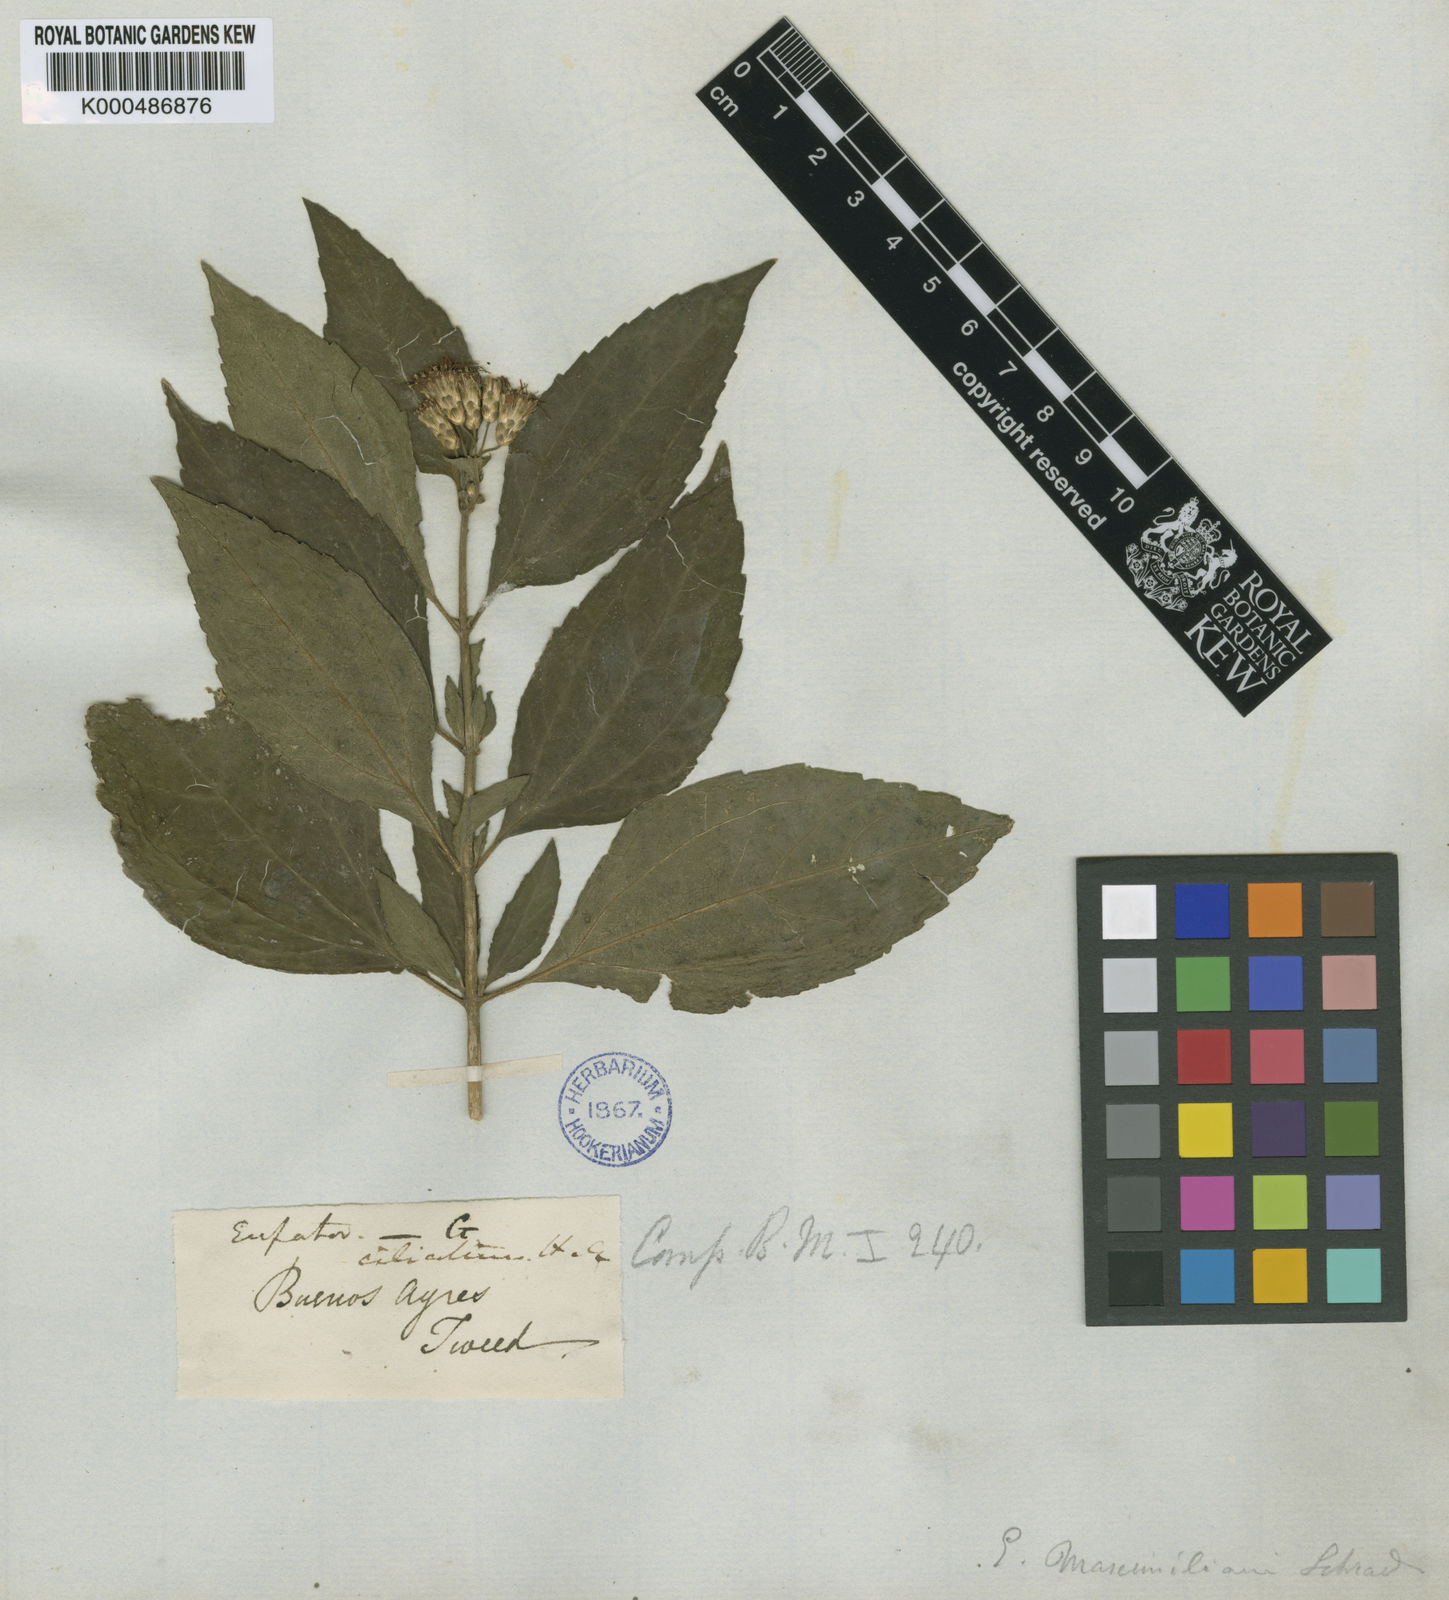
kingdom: Plantae
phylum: Tracheophyta
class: Magnoliopsida
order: Asterales
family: Asteraceae
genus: Chromolaena
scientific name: Chromolaena odorata
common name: Siamweed
